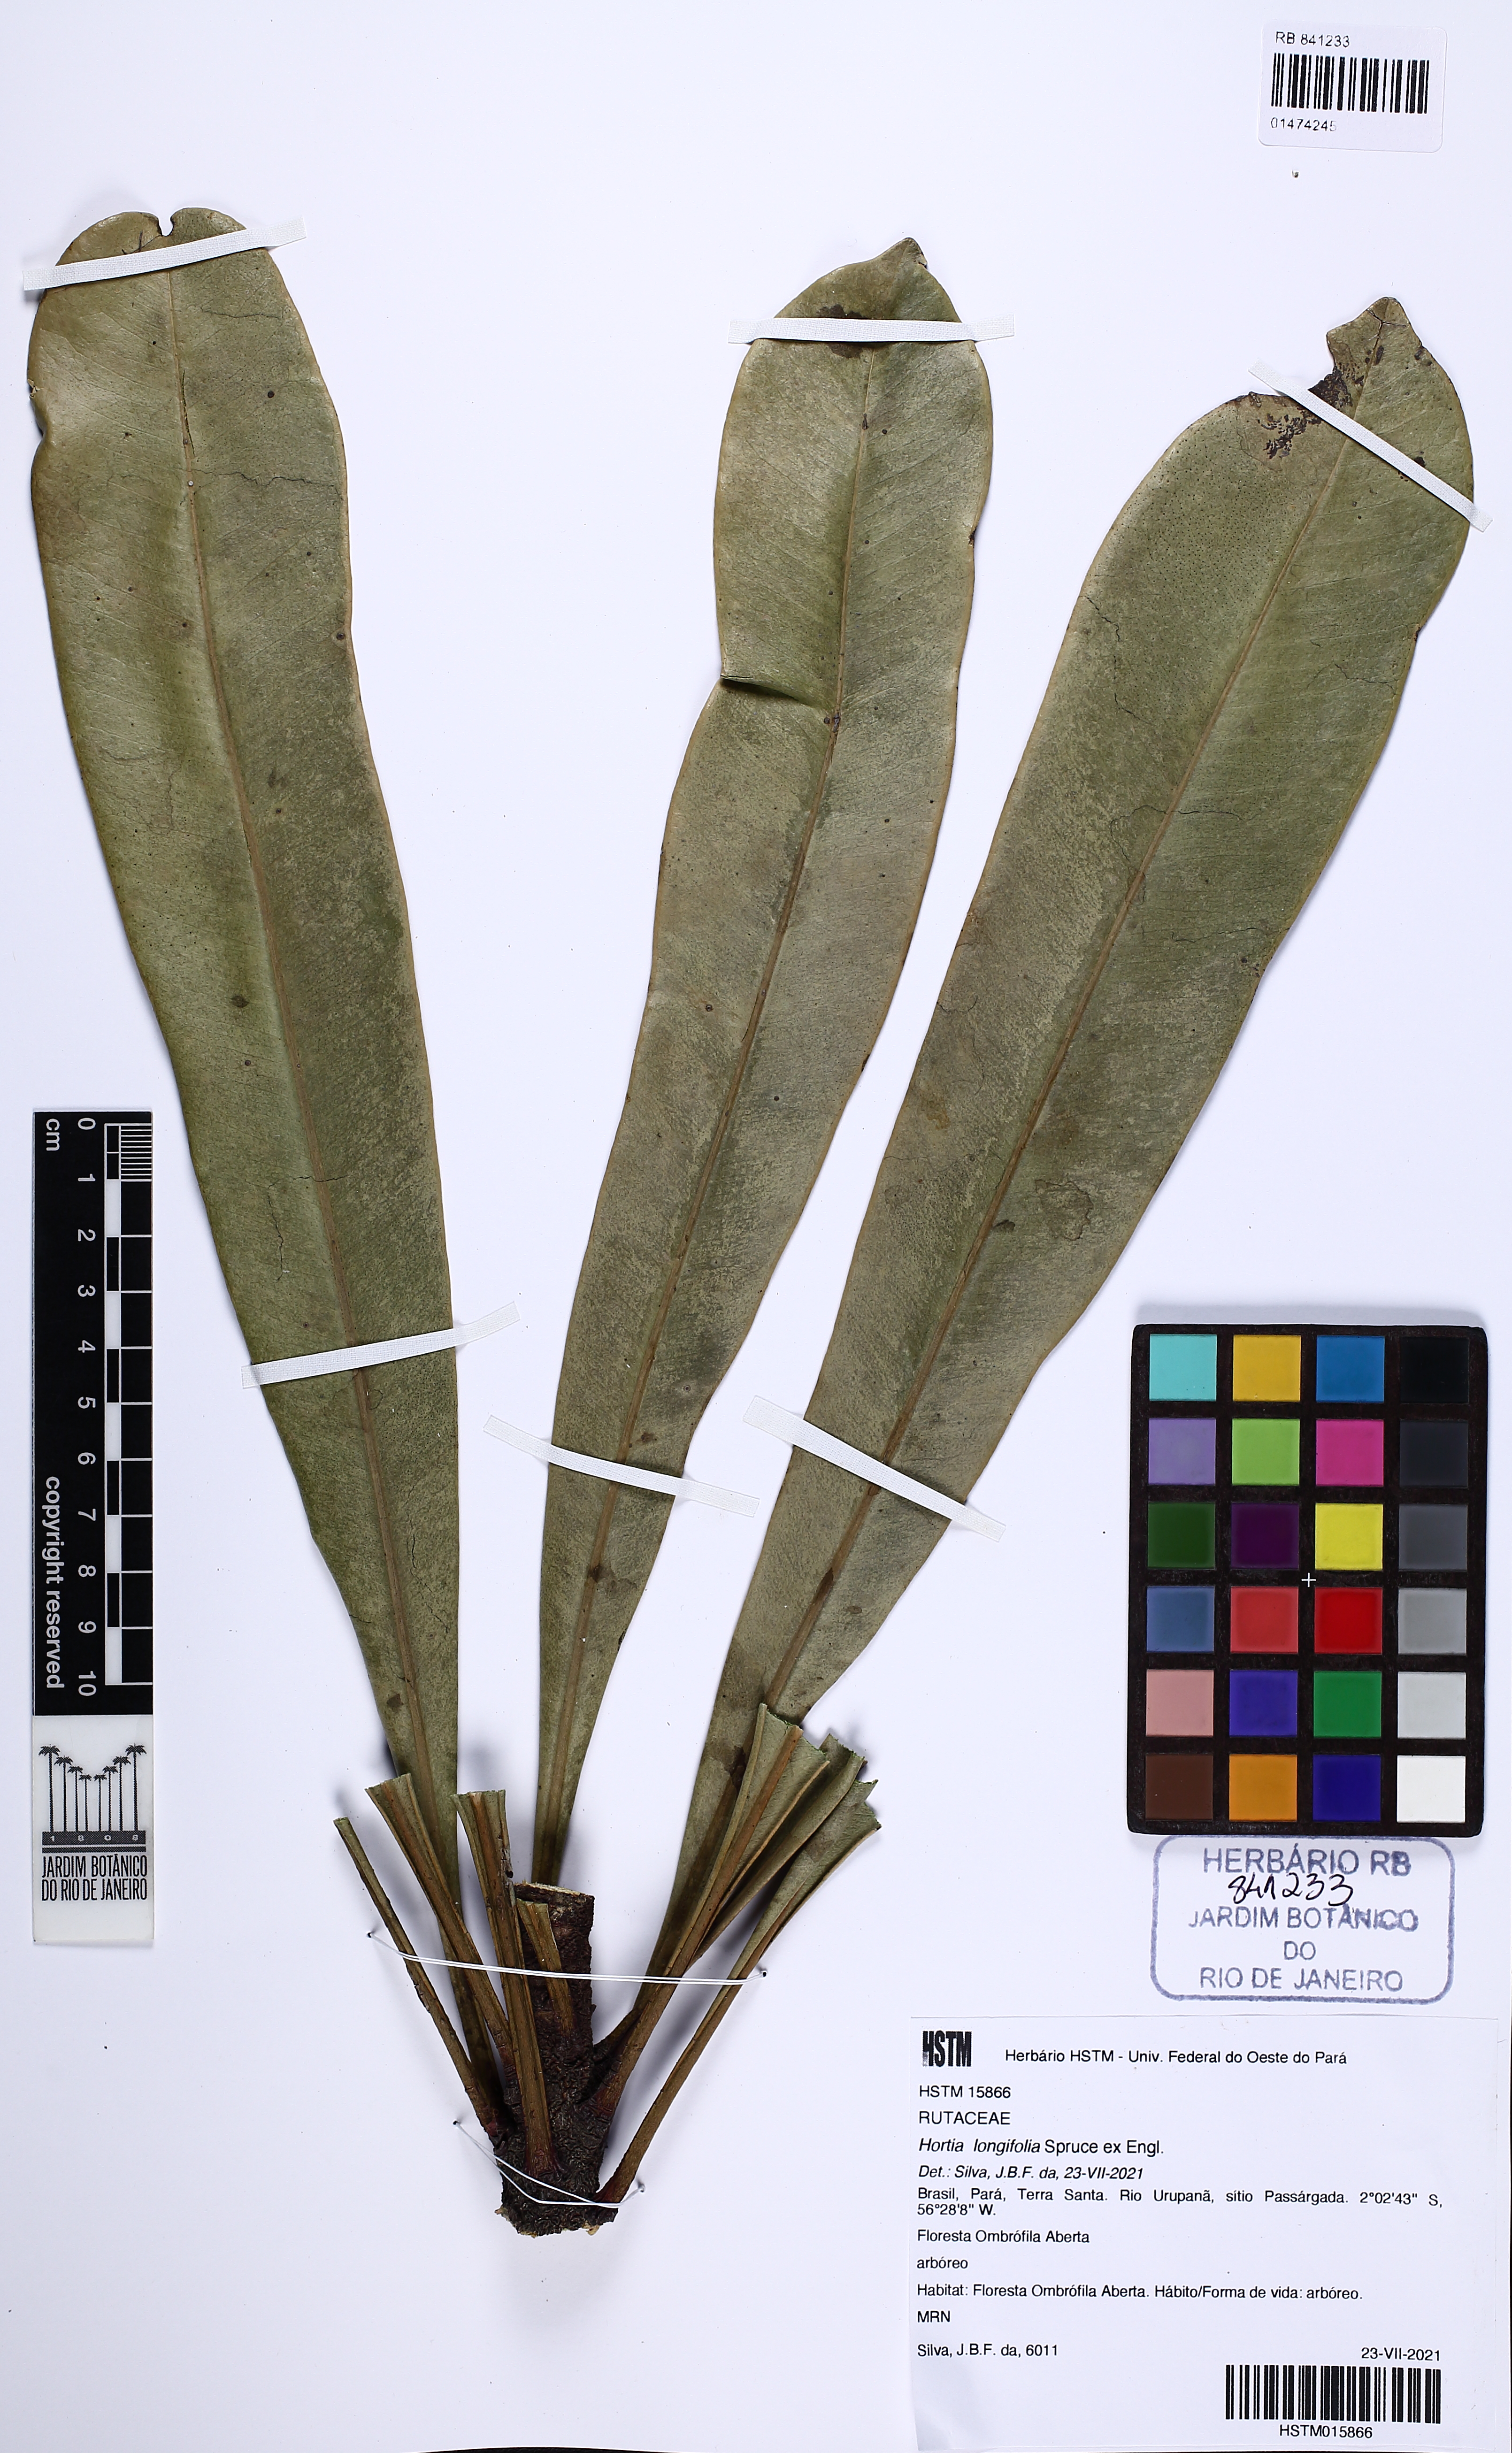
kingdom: Plantae
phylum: Tracheophyta
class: Magnoliopsida
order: Sapindales
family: Rutaceae
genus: Hortia
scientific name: Hortia longifolia
